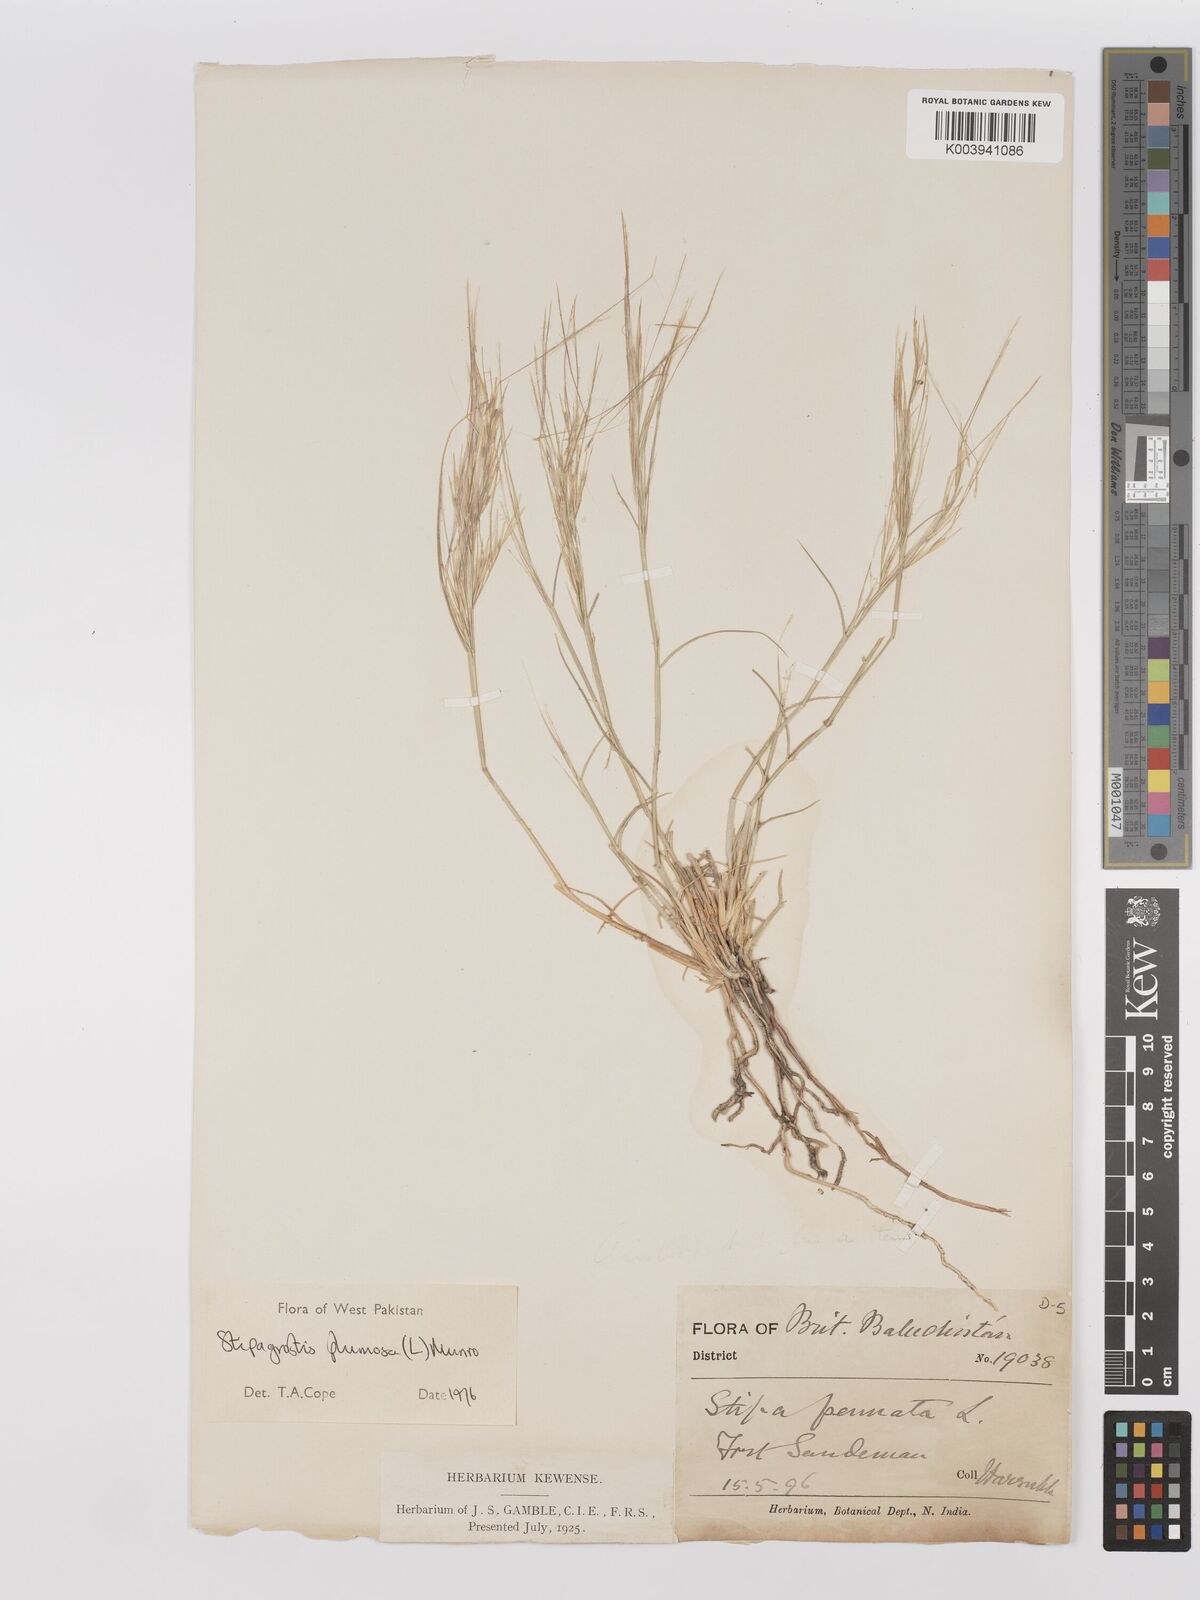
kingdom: Plantae
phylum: Tracheophyta
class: Liliopsida
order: Poales
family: Poaceae
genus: Stipagrostis
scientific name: Stipagrostis plumosa
